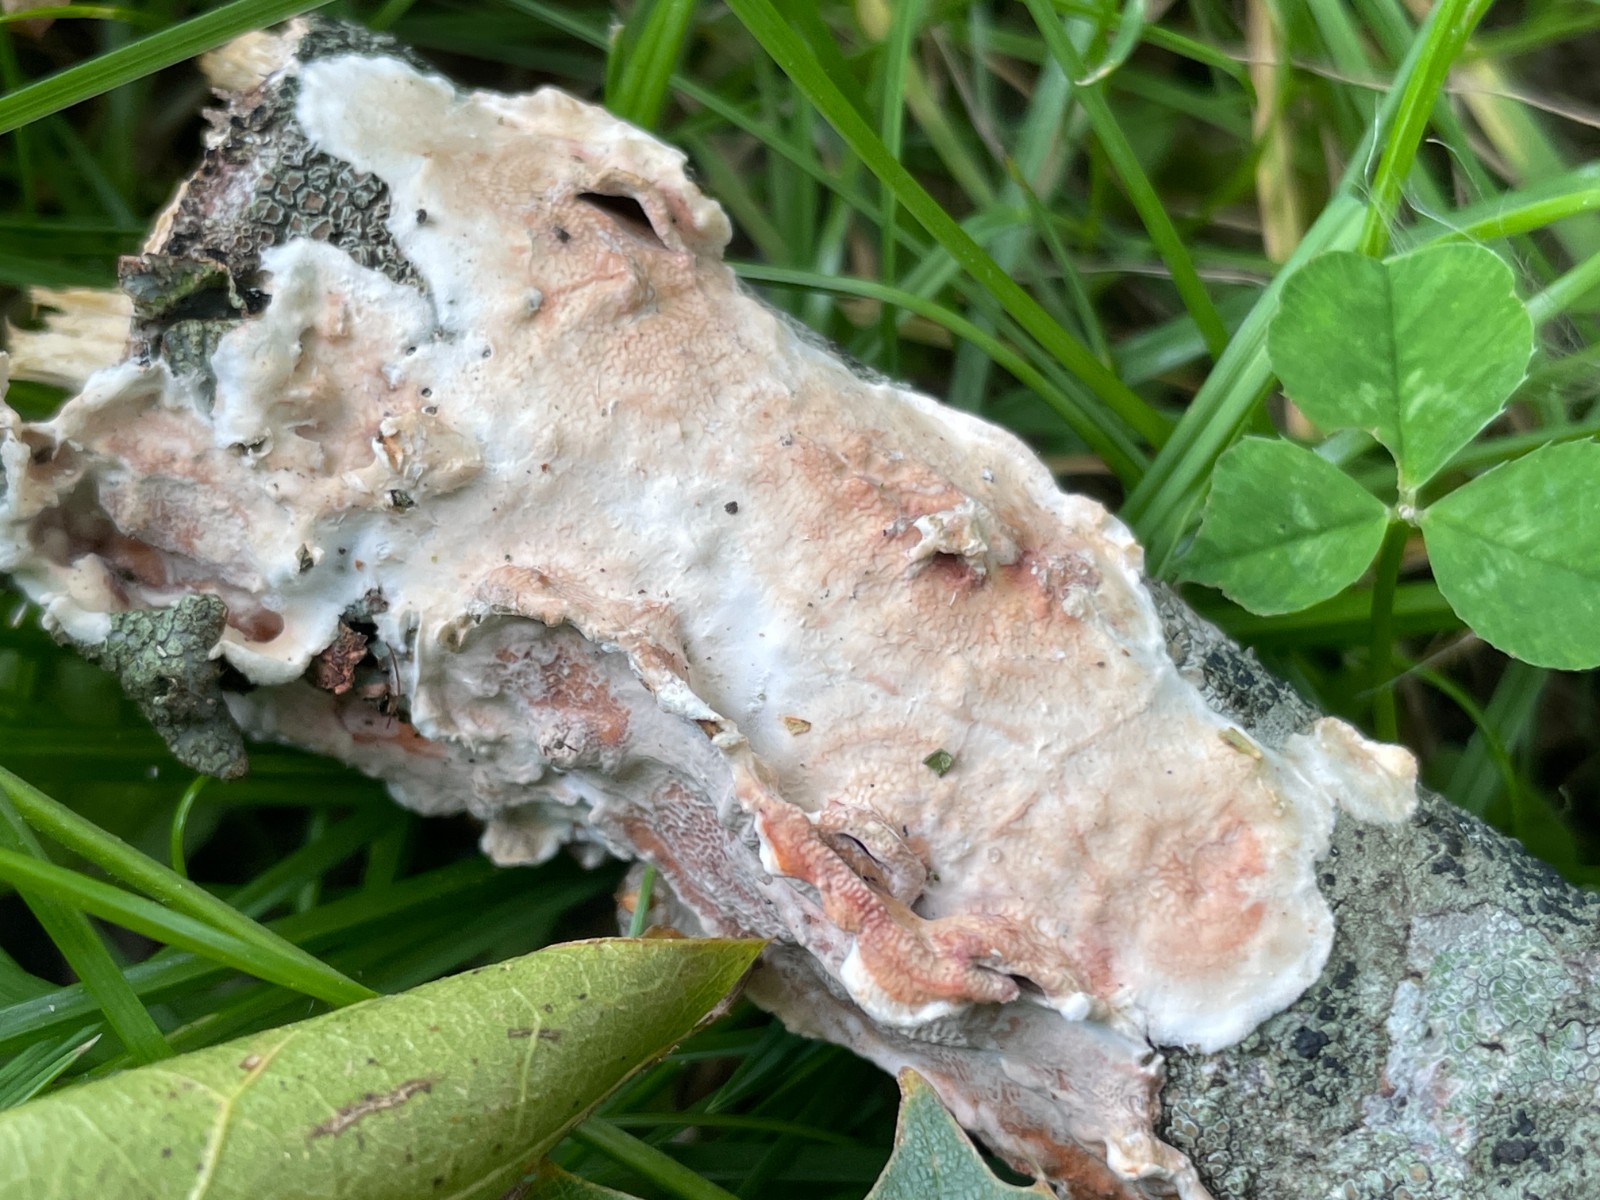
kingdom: Fungi
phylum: Basidiomycota
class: Agaricomycetes
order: Polyporales
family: Irpicaceae
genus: Byssomerulius
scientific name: Byssomerulius corium
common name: læder-åresvamp
